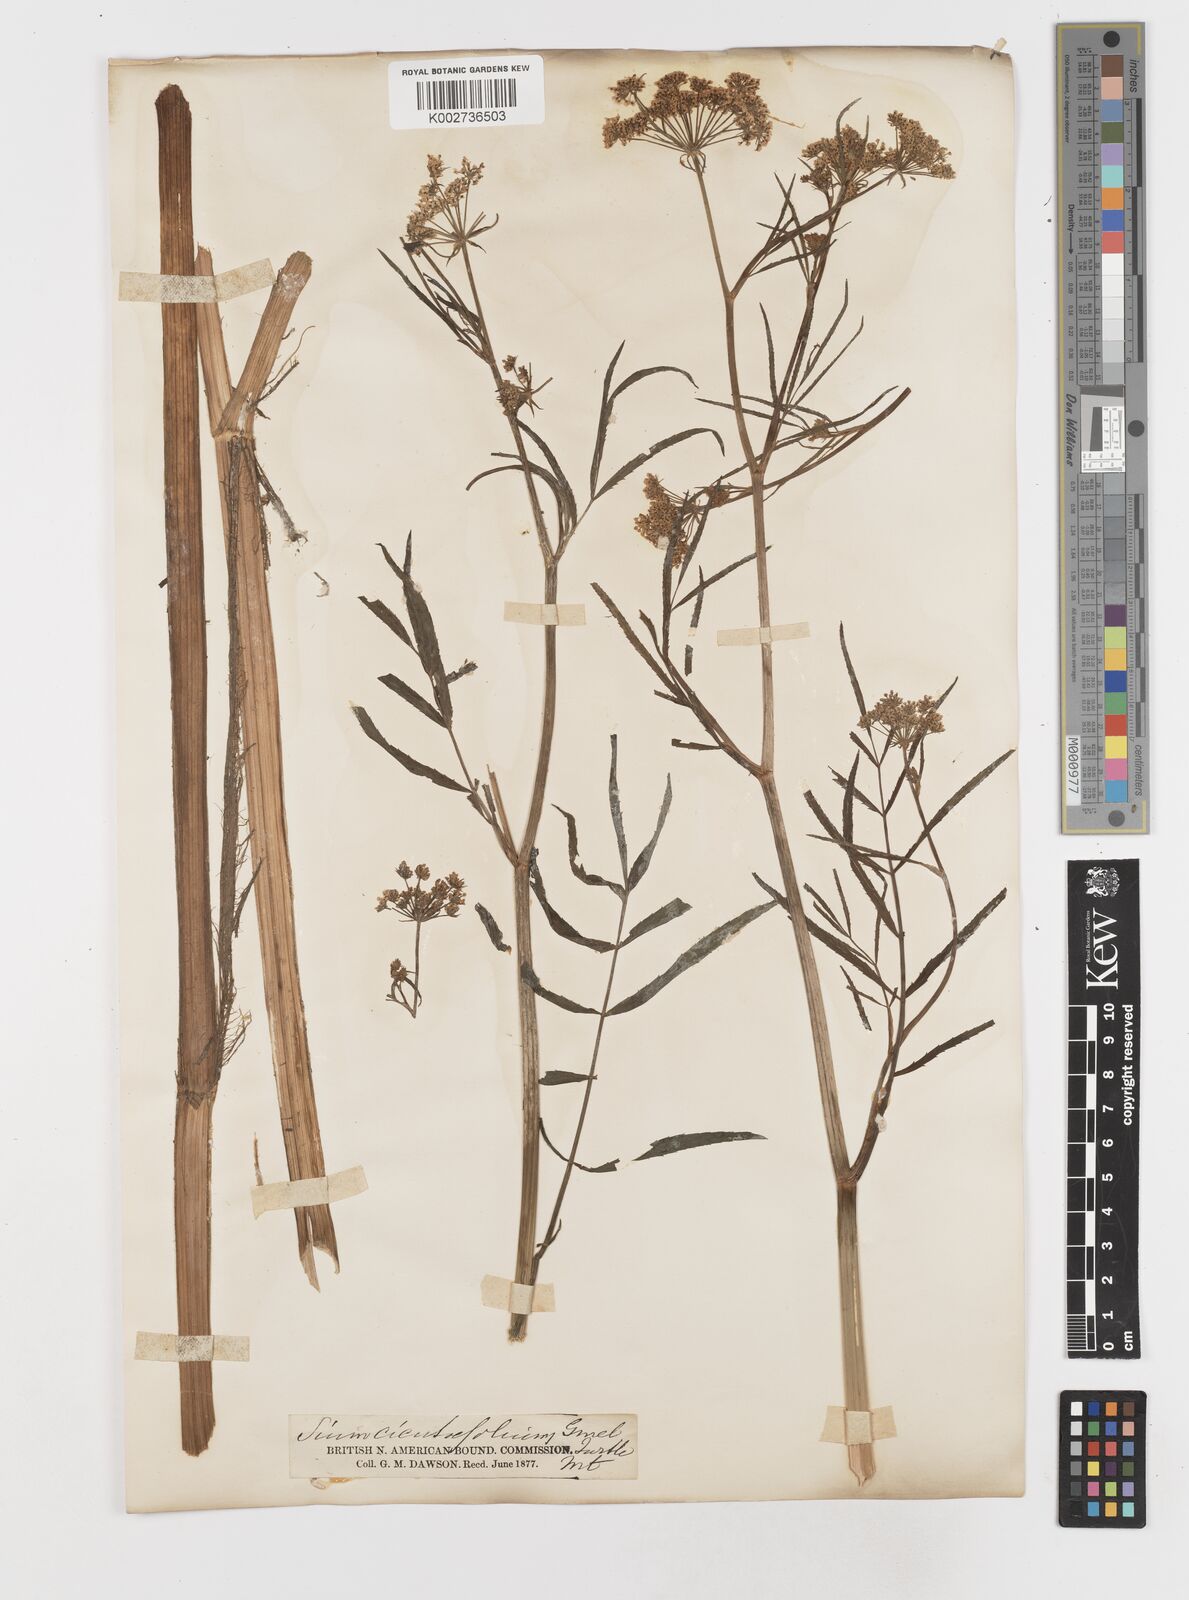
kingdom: Plantae
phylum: Tracheophyta
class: Magnoliopsida
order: Apiales
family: Apiaceae
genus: Sium
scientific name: Sium suave
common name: Hemlock water-parsnip
